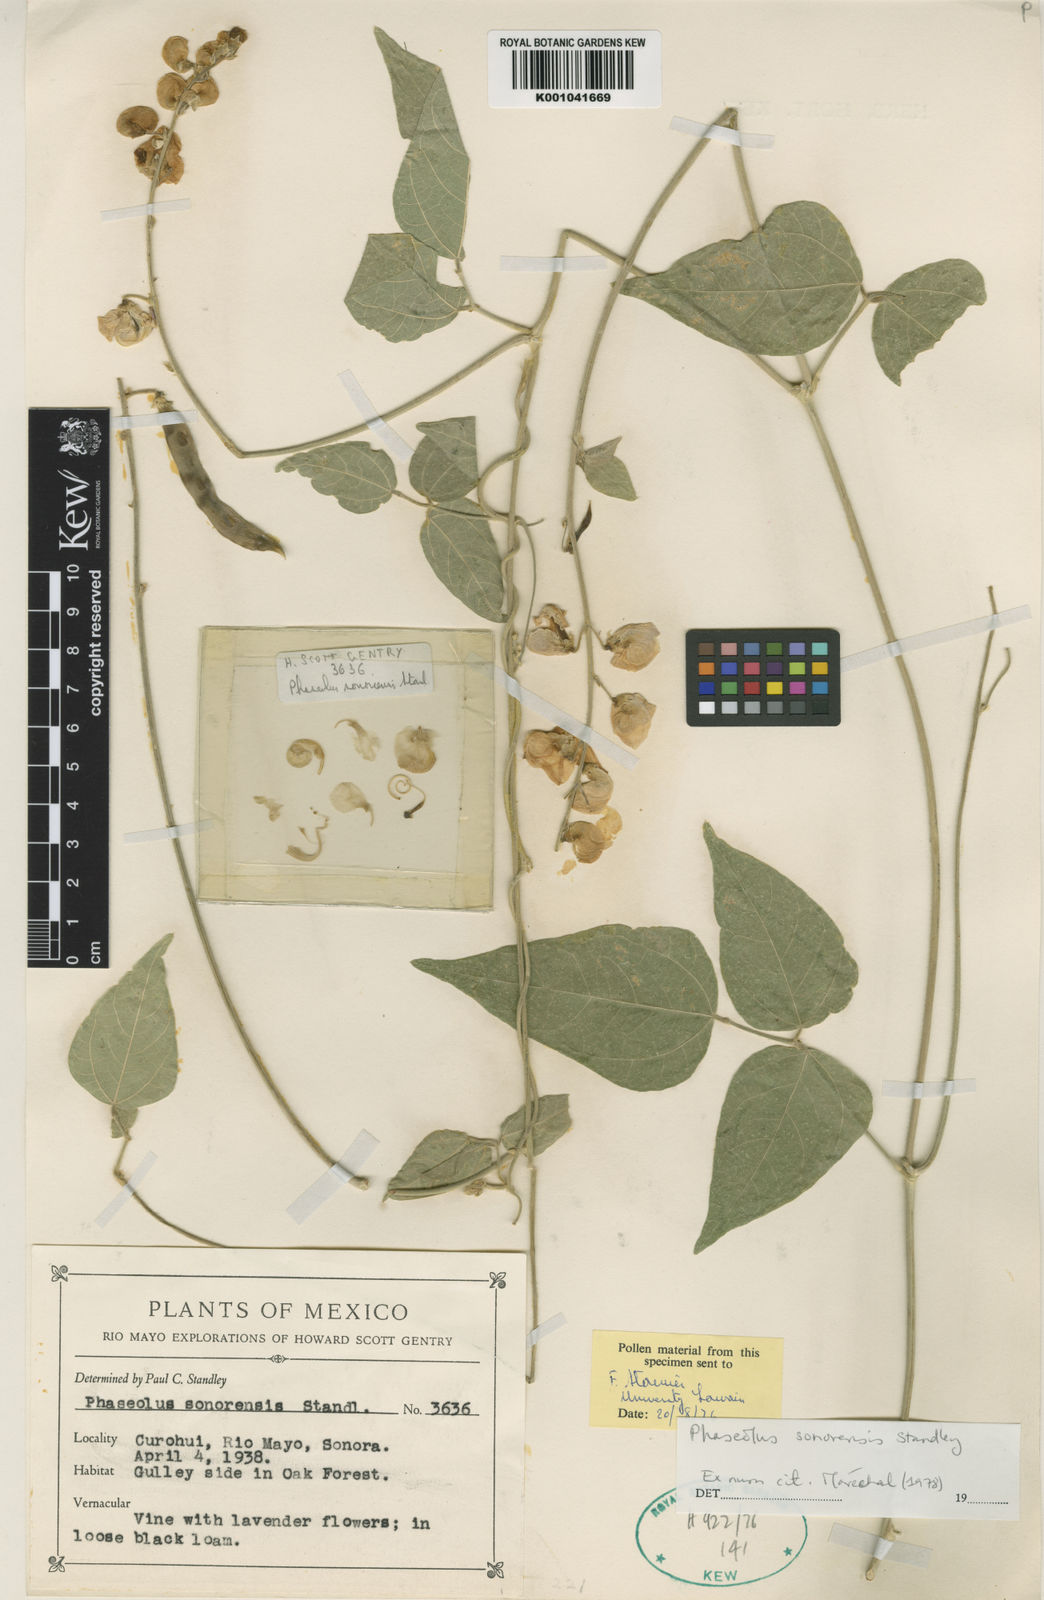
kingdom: Plantae
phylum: Tracheophyta
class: Magnoliopsida
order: Fabales
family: Fabaceae
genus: Phaseolus
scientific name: Phaseolus sonorensis
